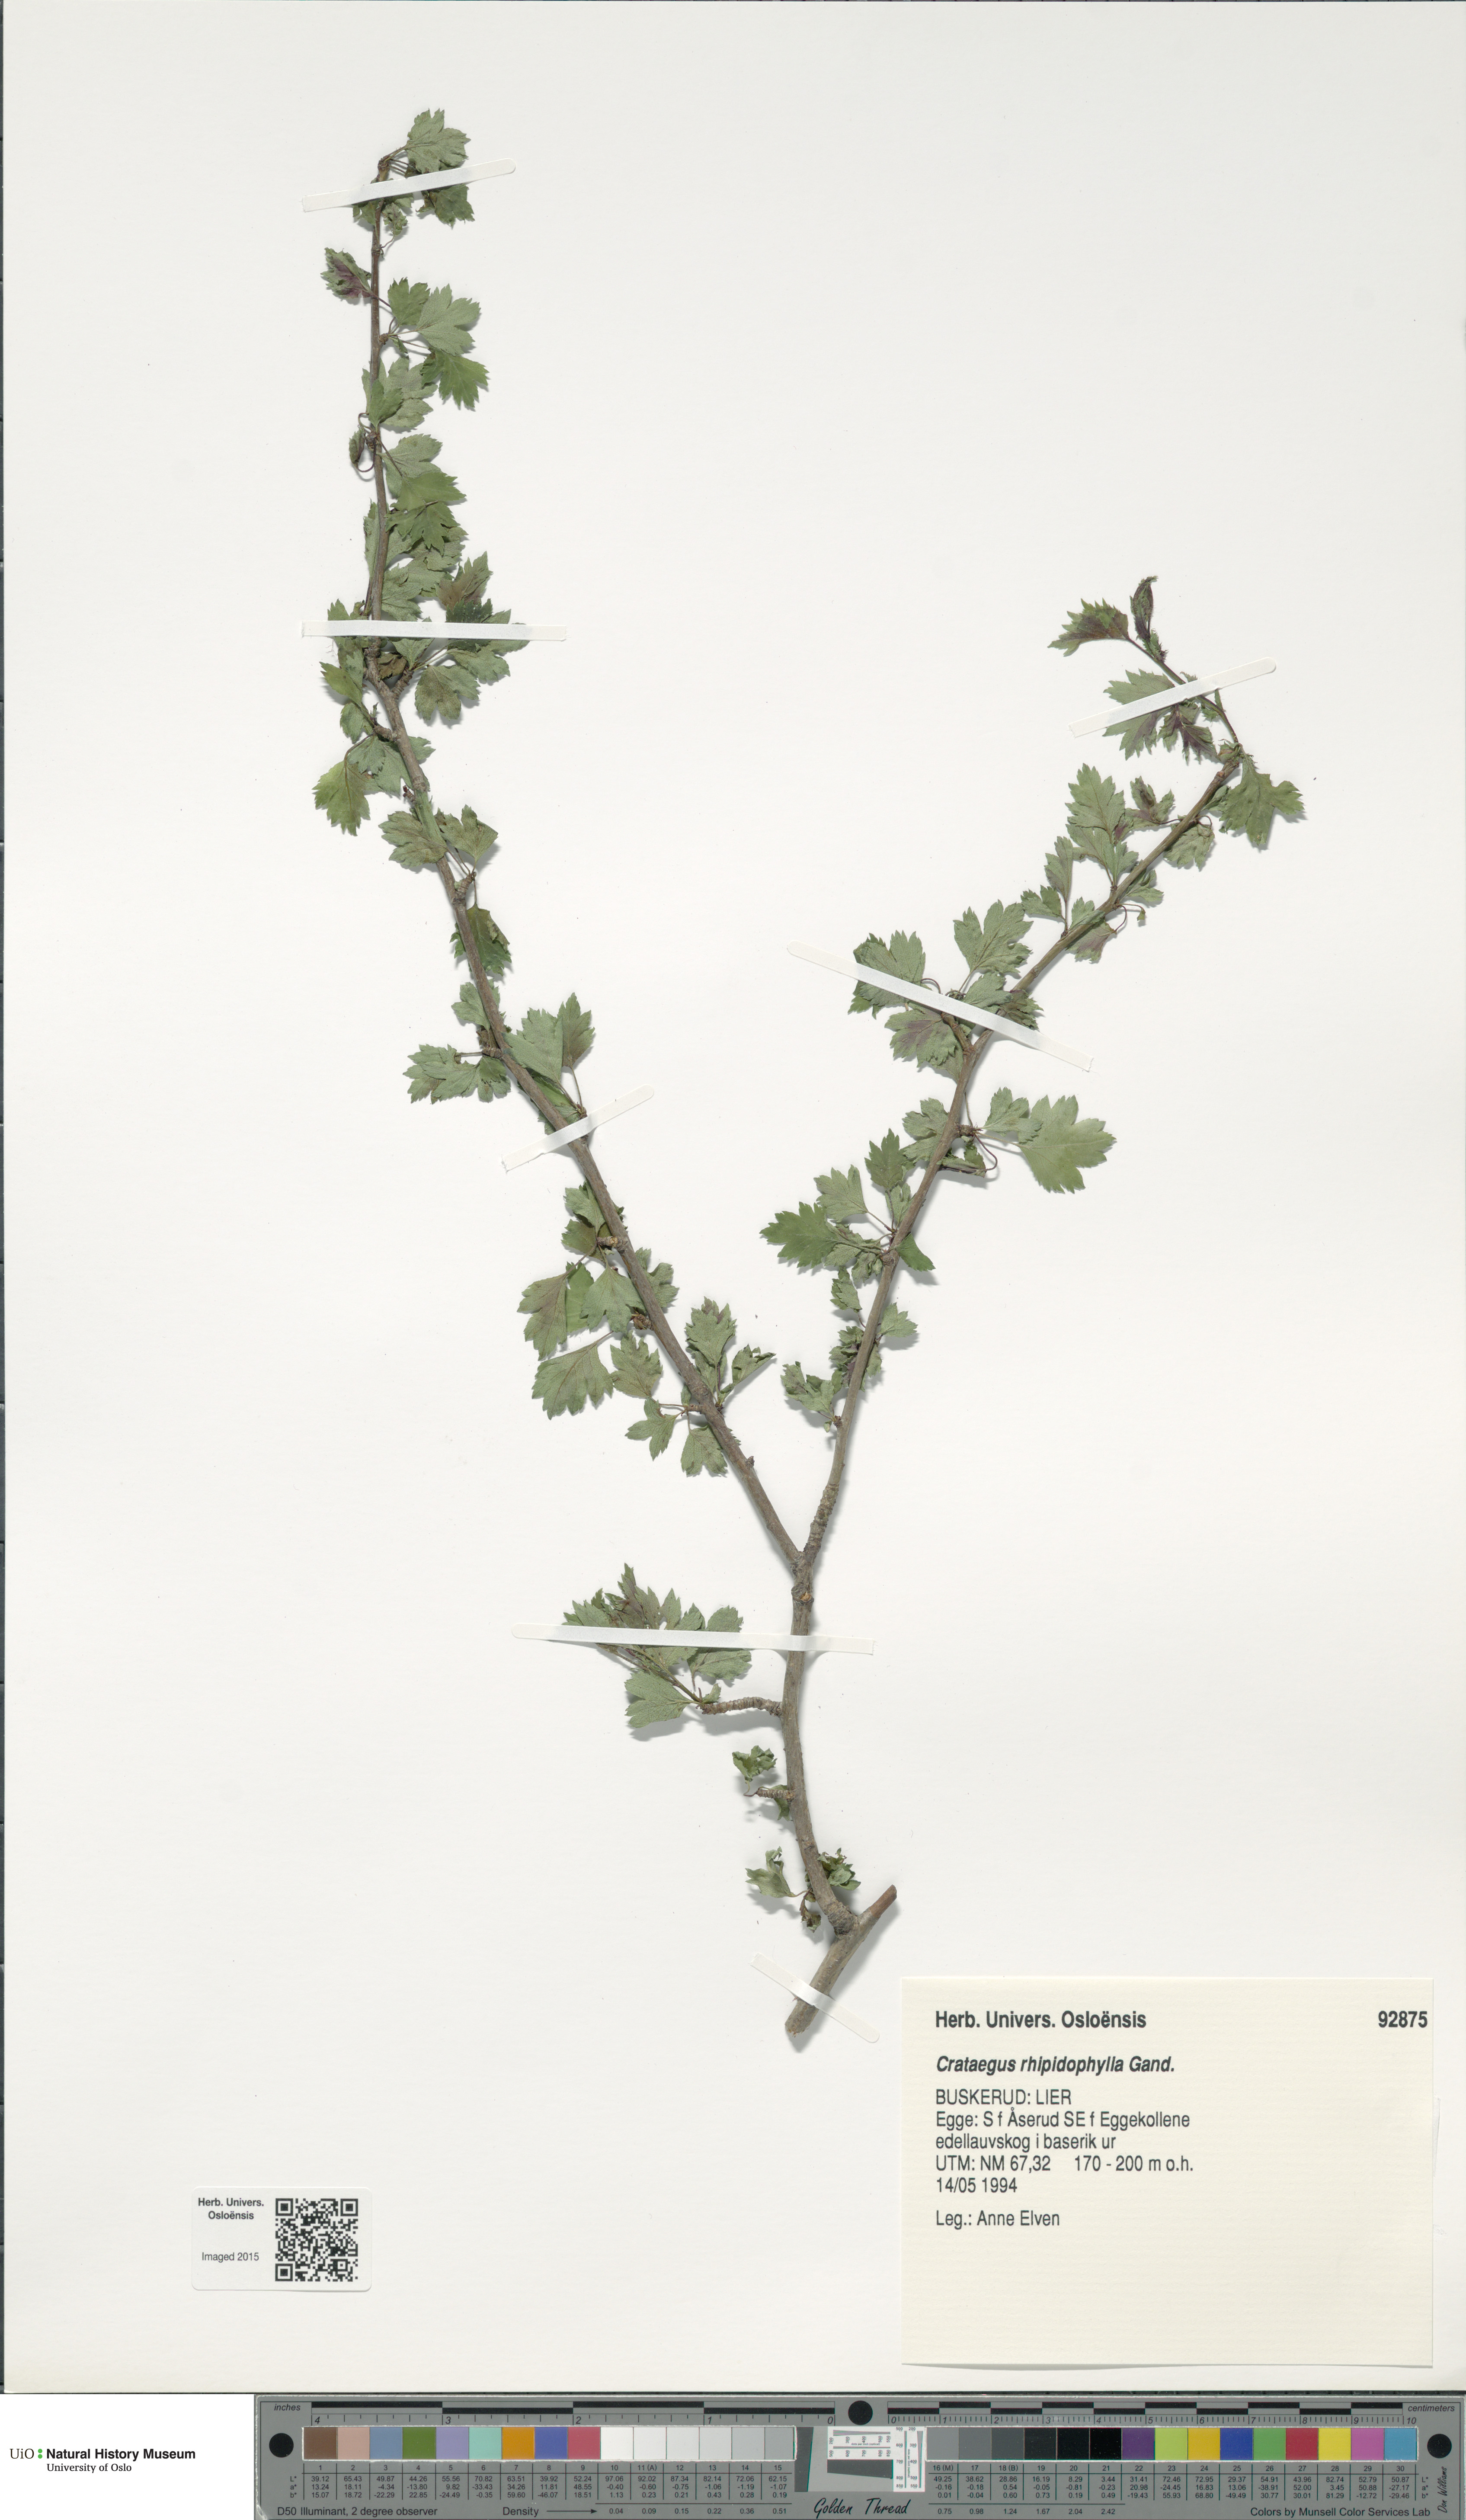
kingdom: Plantae
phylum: Tracheophyta
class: Magnoliopsida
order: Rosales
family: Rosaceae
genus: Crataegus
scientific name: Crataegus rhipidophylla
